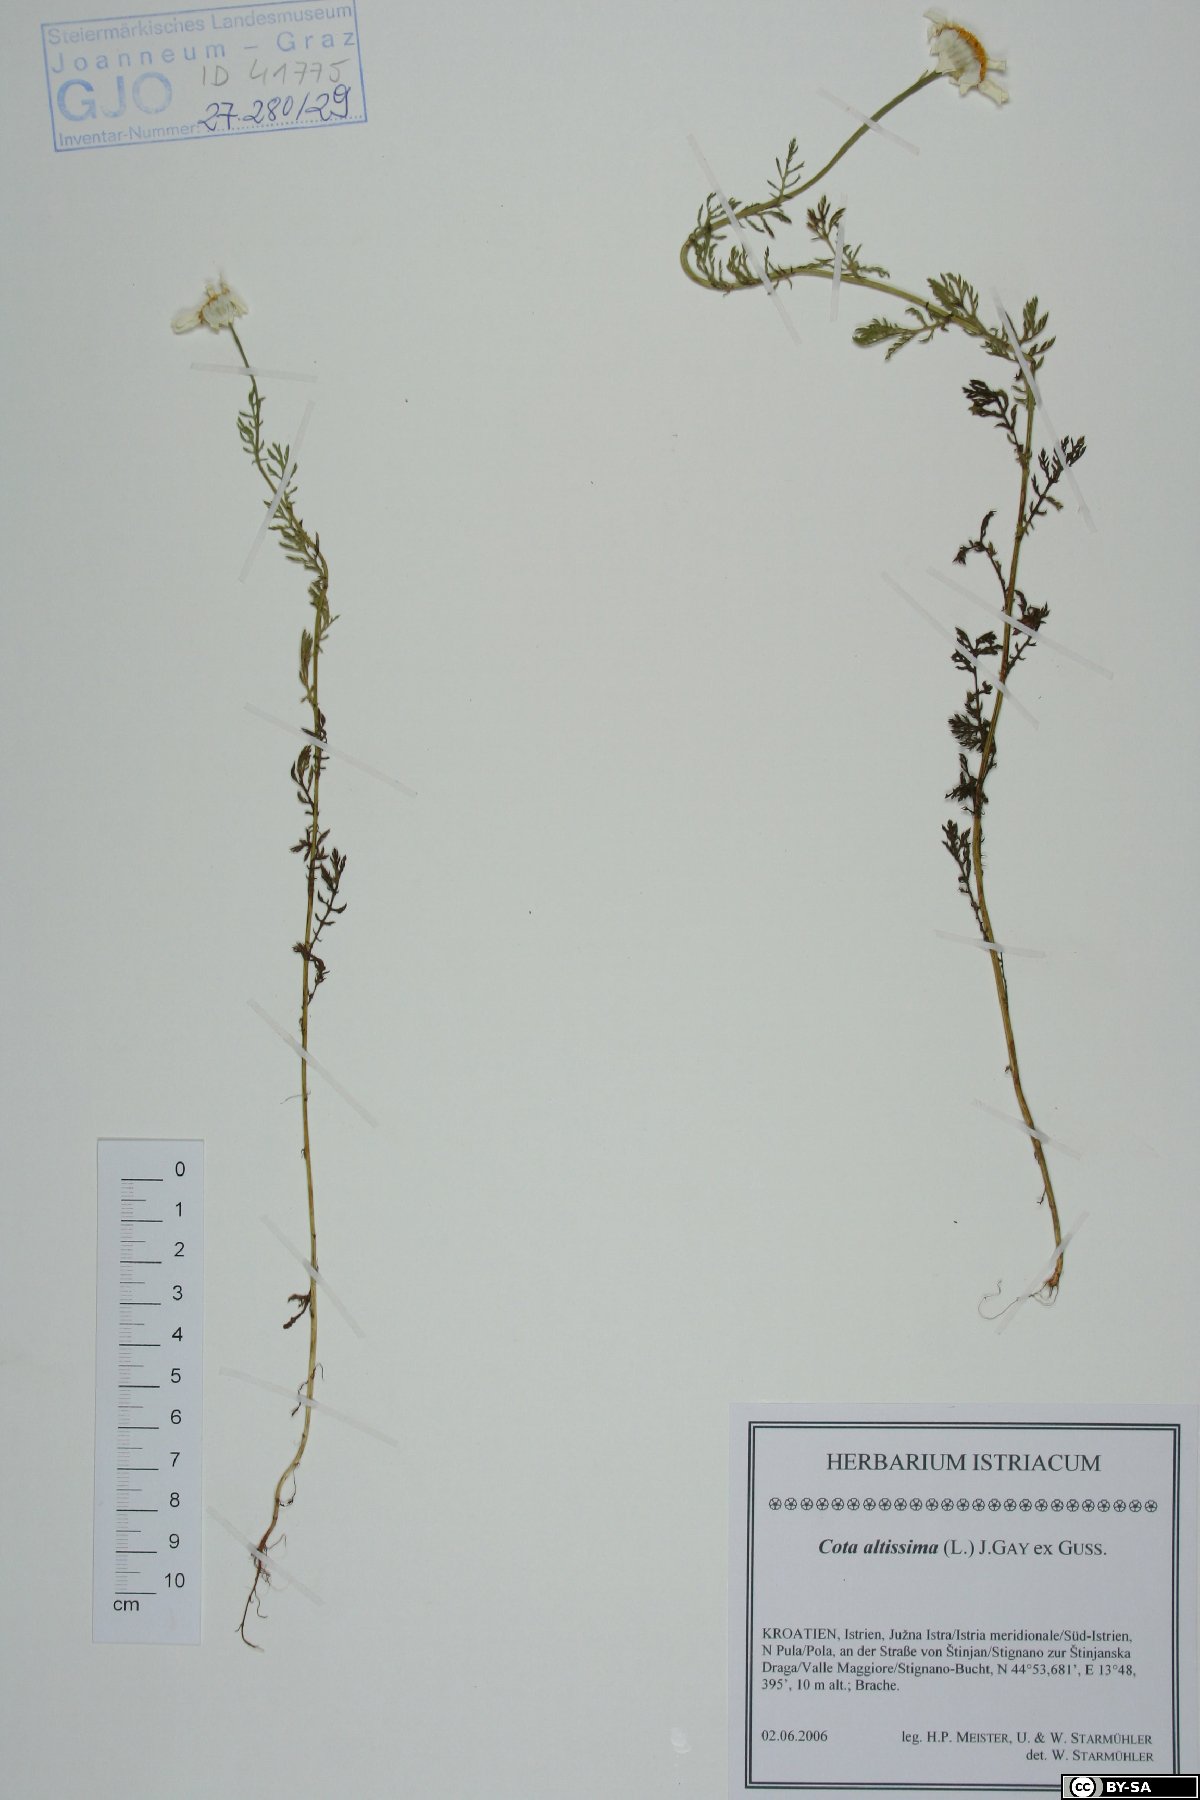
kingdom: Plantae
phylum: Tracheophyta
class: Magnoliopsida
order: Asterales
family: Asteraceae
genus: Cota
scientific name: Cota altissima
